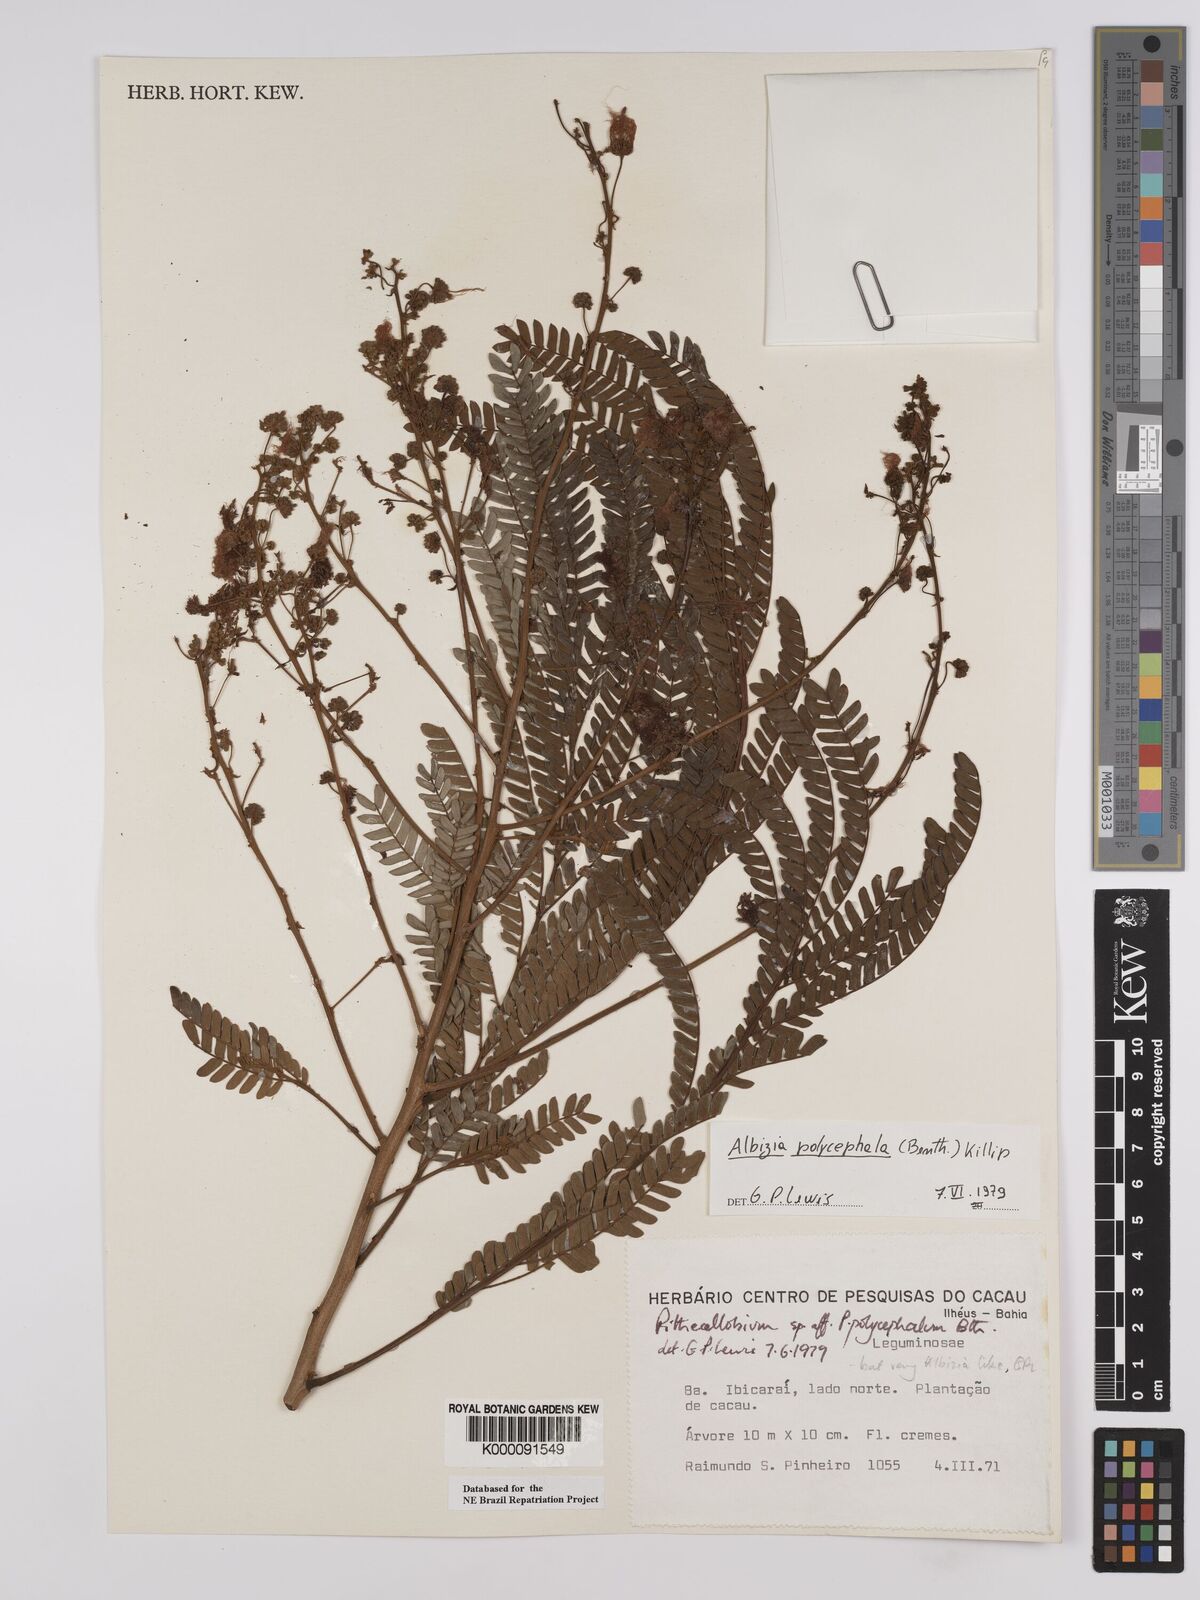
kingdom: Plantae
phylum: Tracheophyta
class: Magnoliopsida
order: Fabales
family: Fabaceae
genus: Albizia
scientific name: Albizia polycephala
